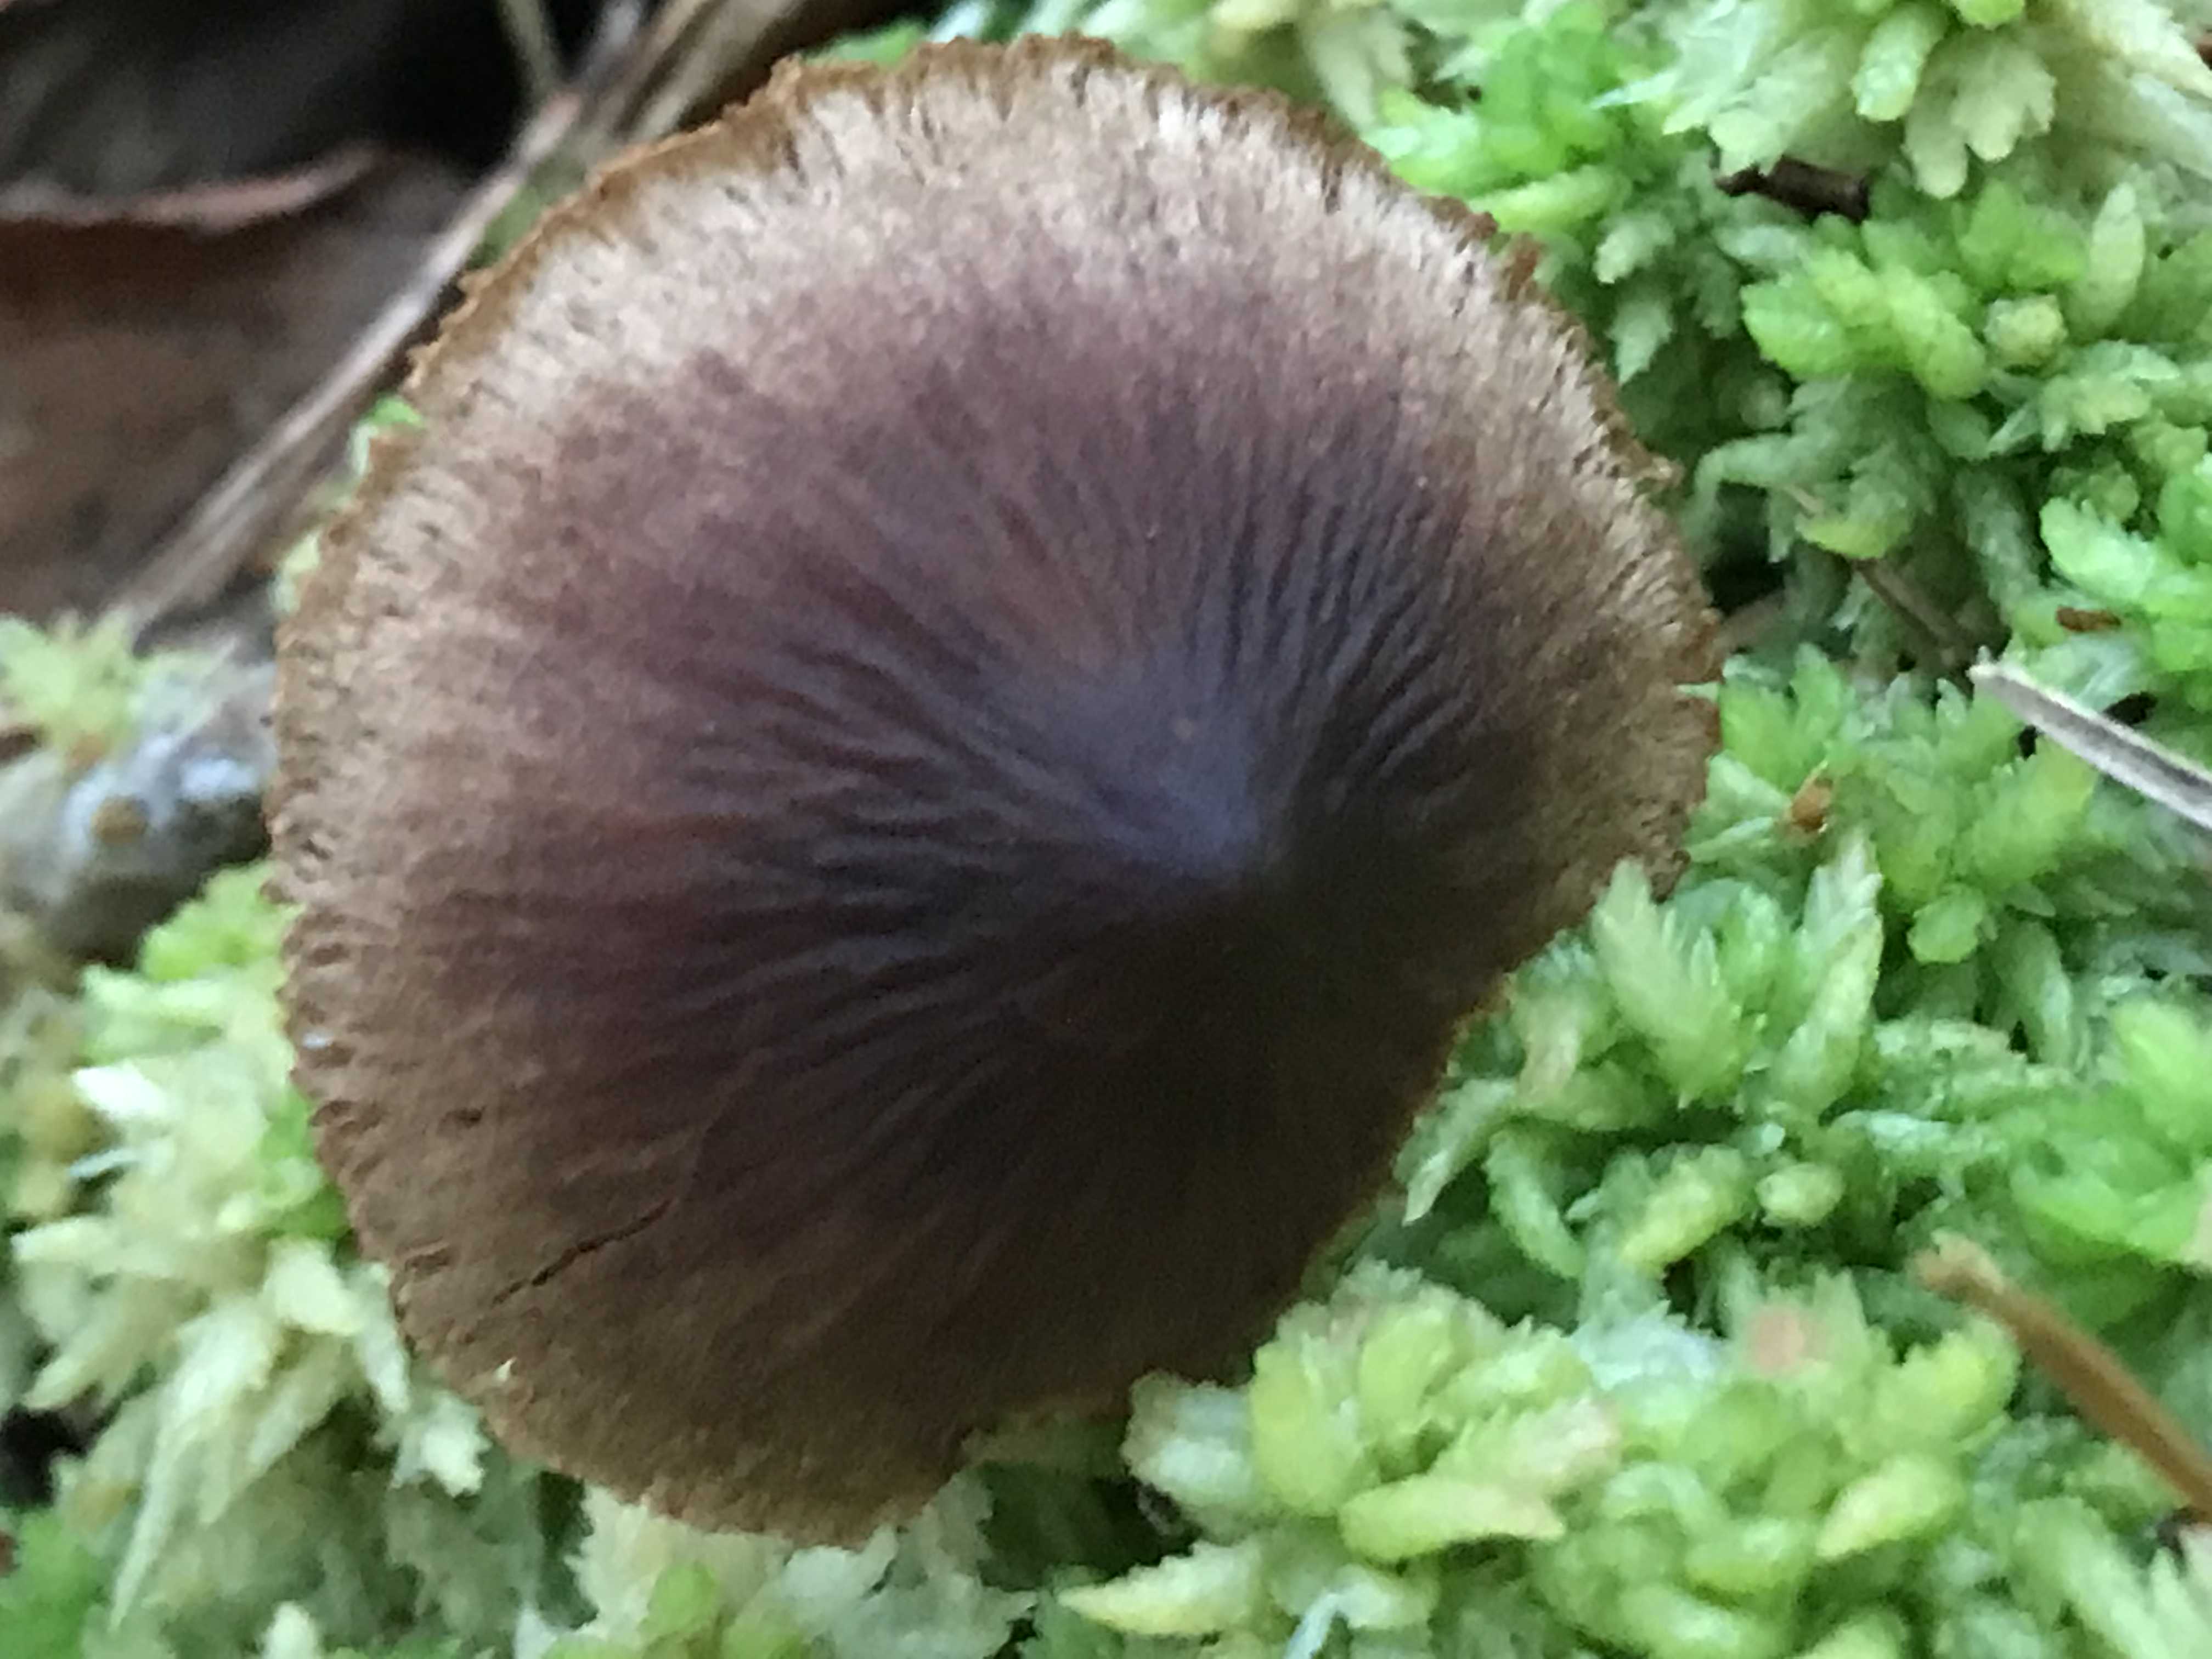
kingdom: Fungi
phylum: Basidiomycota
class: Agaricomycetes
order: Agaricales
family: Cortinariaceae
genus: Cortinarius
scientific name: Cortinarius
